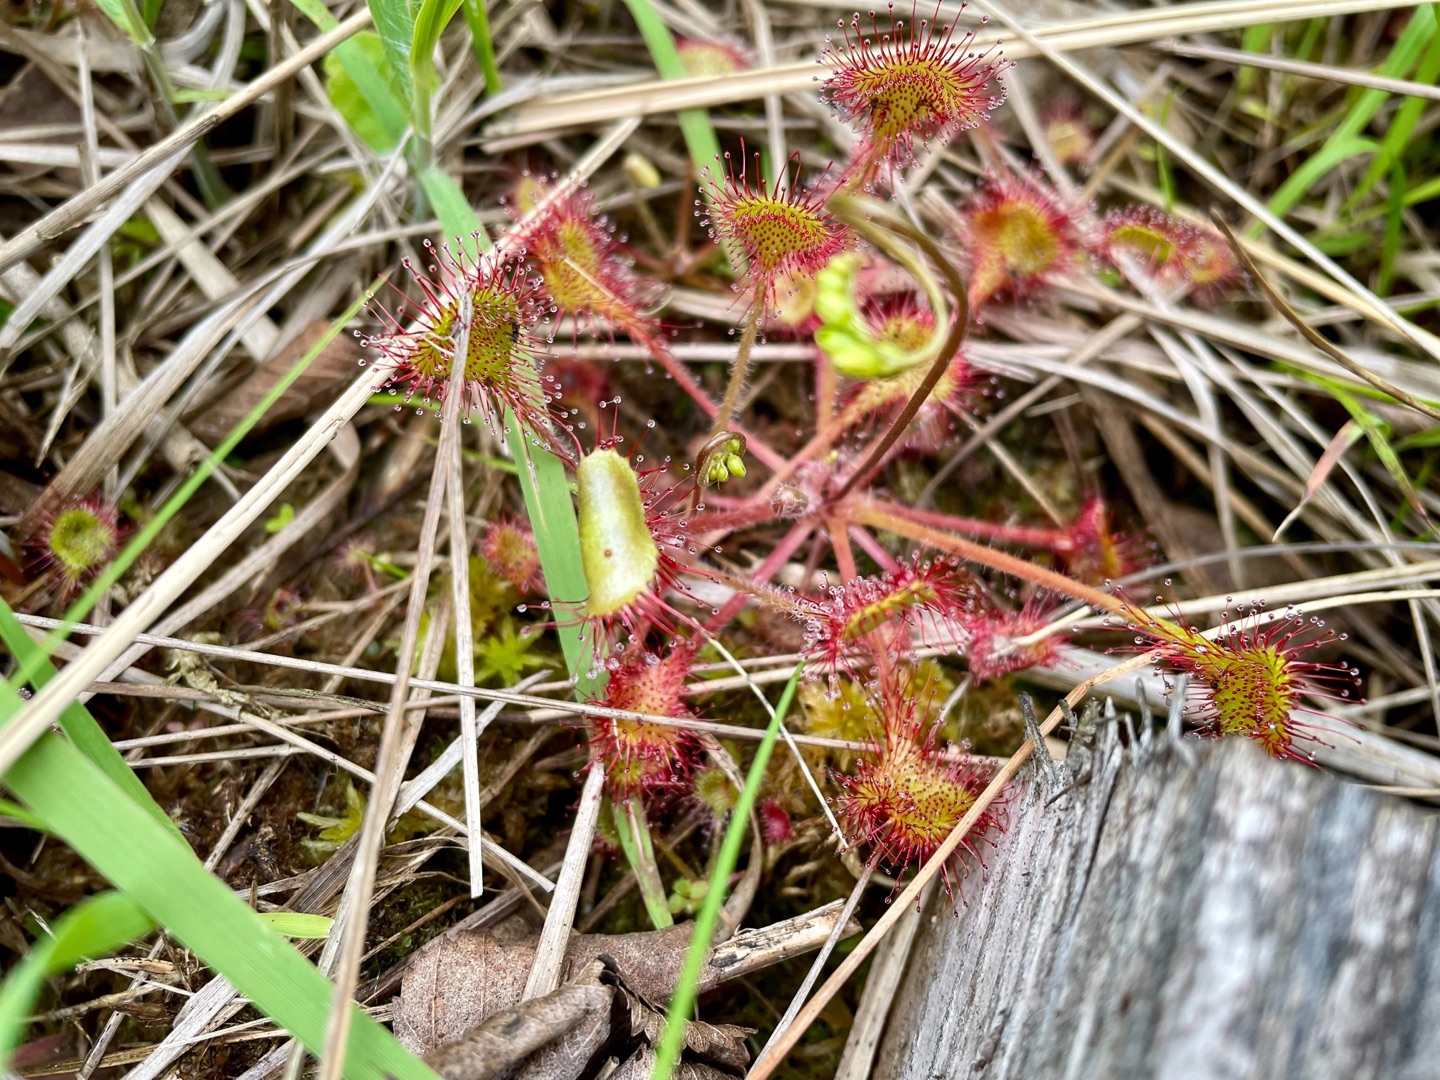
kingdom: Plantae
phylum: Tracheophyta
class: Magnoliopsida
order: Caryophyllales
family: Droseraceae
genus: Drosera
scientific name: Drosera rotundifolia
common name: Rundbladet soldug
